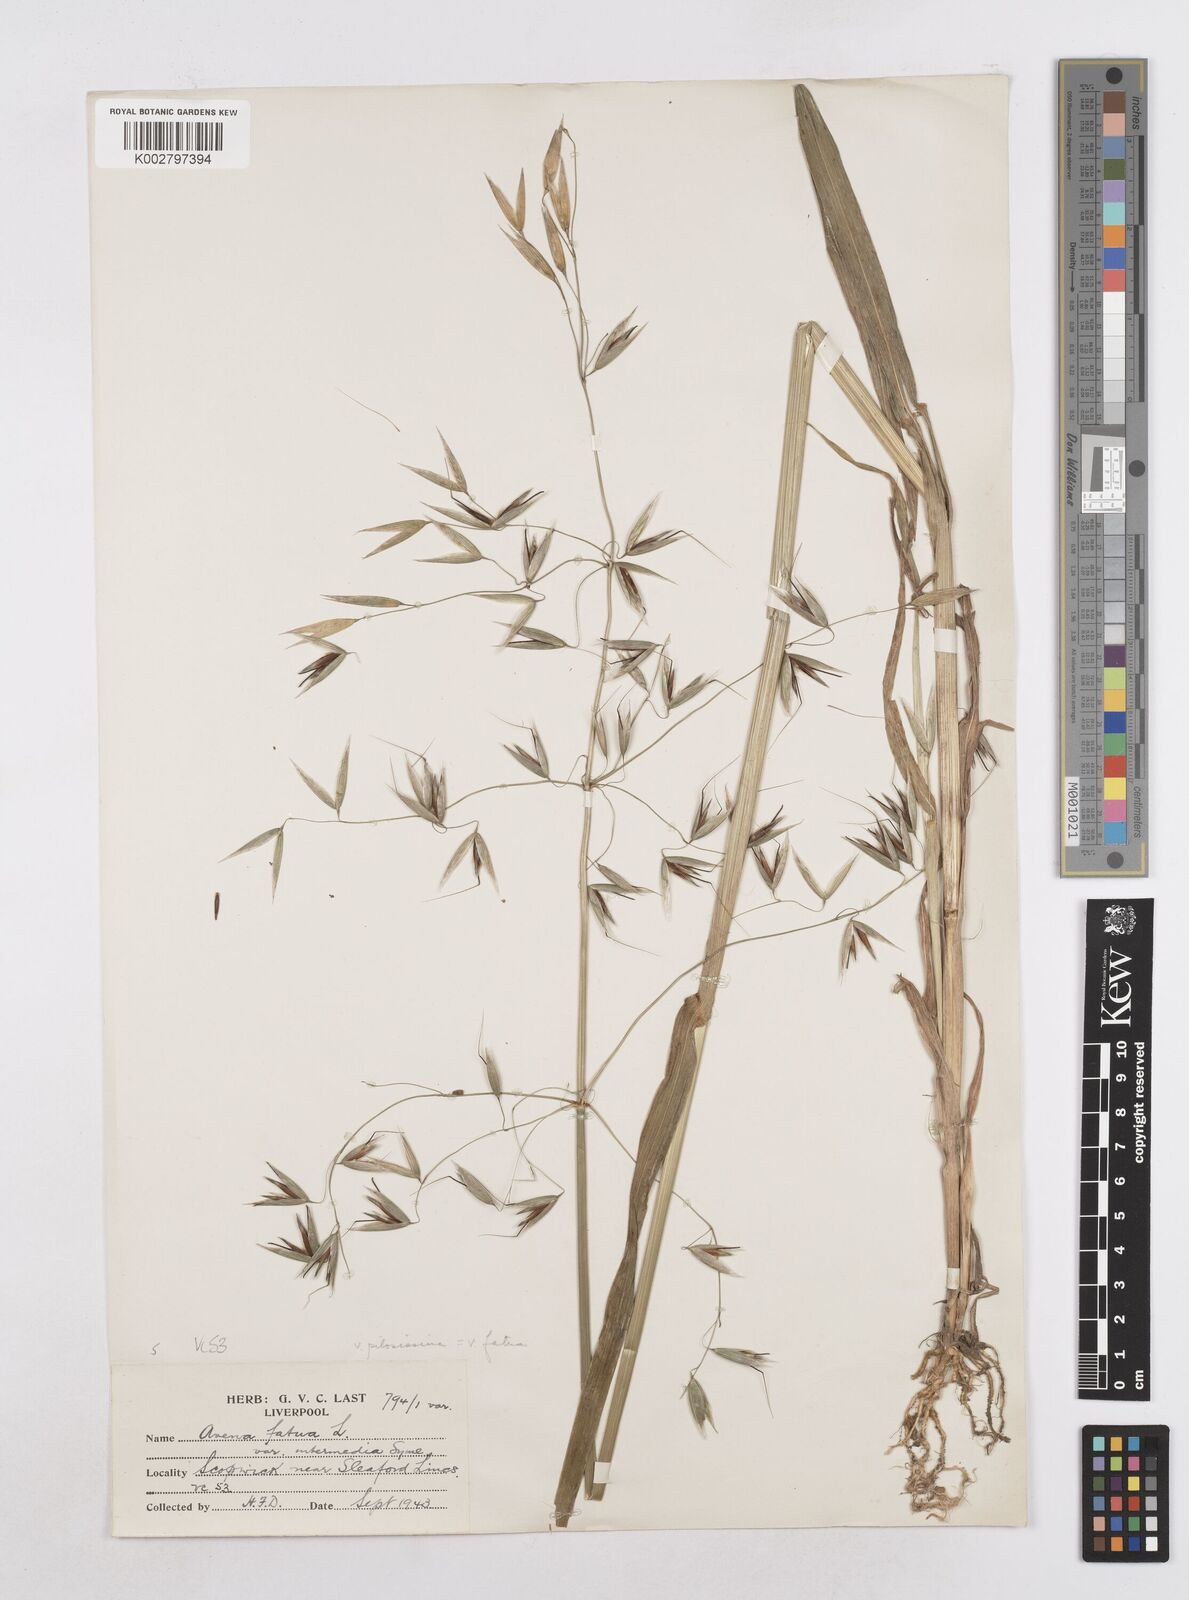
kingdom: Plantae
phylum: Tracheophyta
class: Liliopsida
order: Poales
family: Poaceae
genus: Avena
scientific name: Avena fatua
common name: Wild oat
